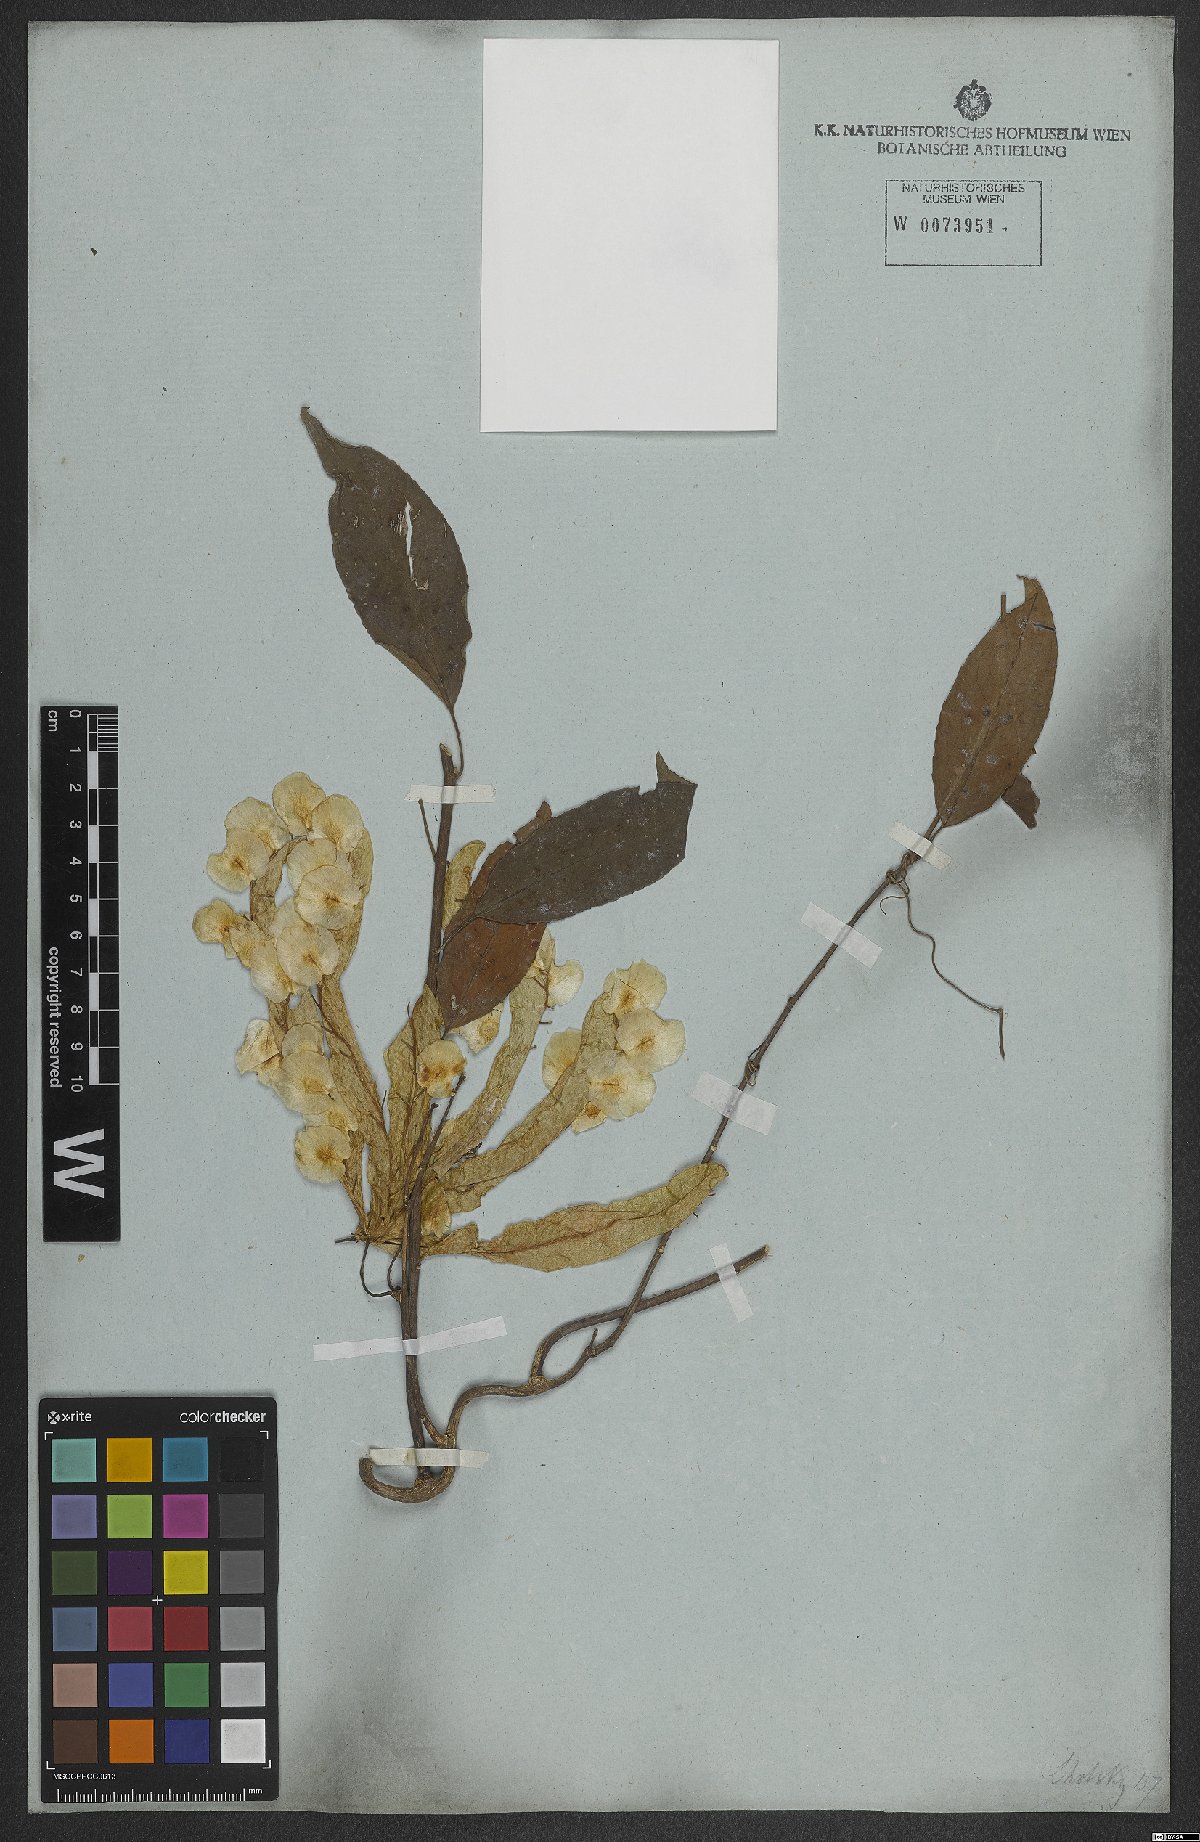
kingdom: Plantae
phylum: Tracheophyta
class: Magnoliopsida
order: Malpighiales
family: Violaceae
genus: Anchietea
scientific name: Anchietea pyrifolia
